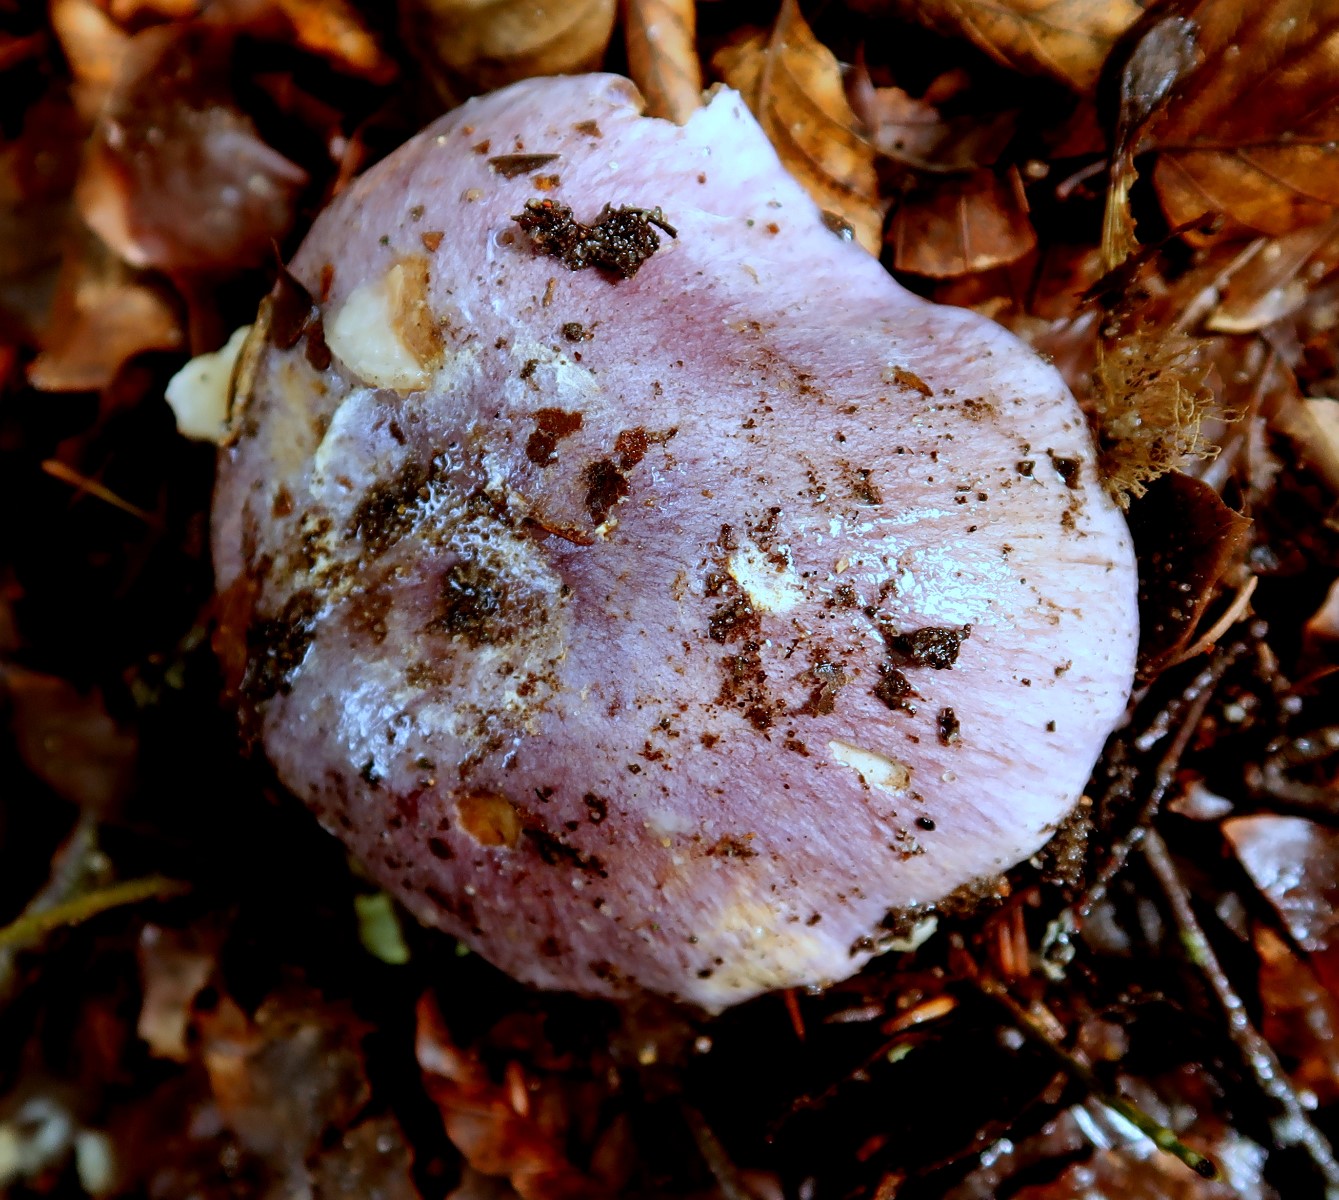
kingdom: Fungi
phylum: Basidiomycota
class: Agaricomycetes
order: Agaricales
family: Cortinariaceae
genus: Cortinarius
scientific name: Cortinarius caerulescens
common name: blåkødet slørhat
